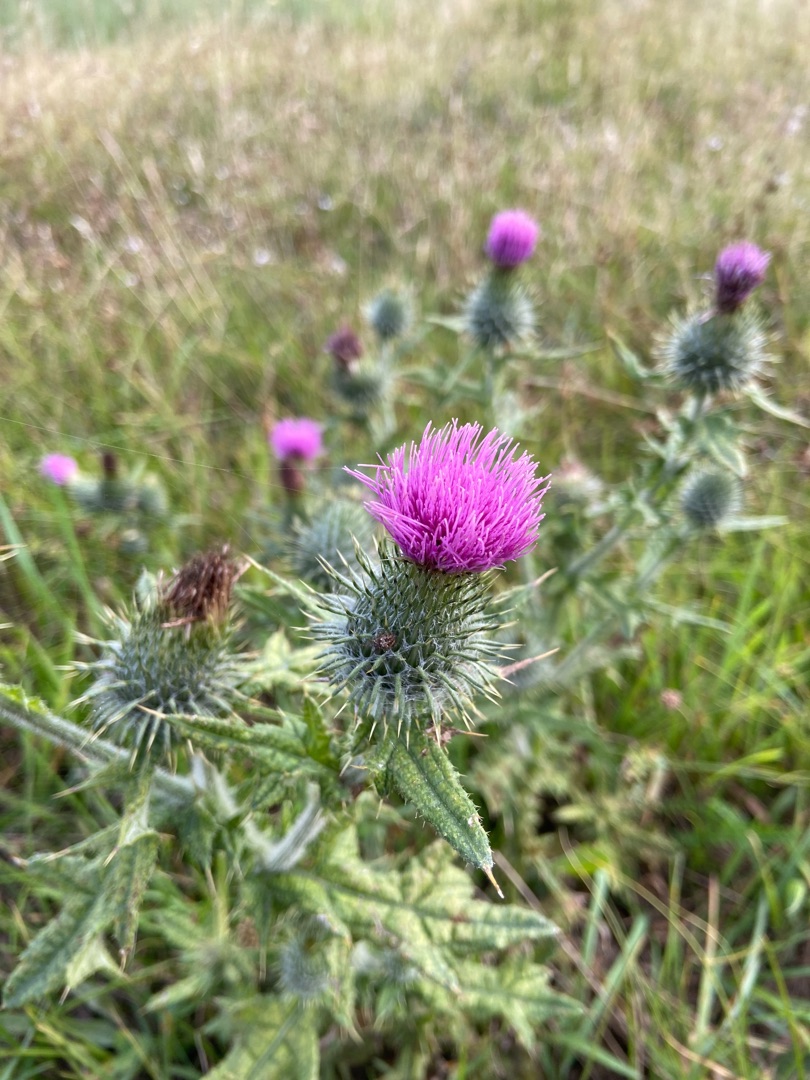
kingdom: Plantae
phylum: Tracheophyta
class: Magnoliopsida
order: Asterales
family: Asteraceae
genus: Cirsium
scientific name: Cirsium vulgare
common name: Horse-tidsel
